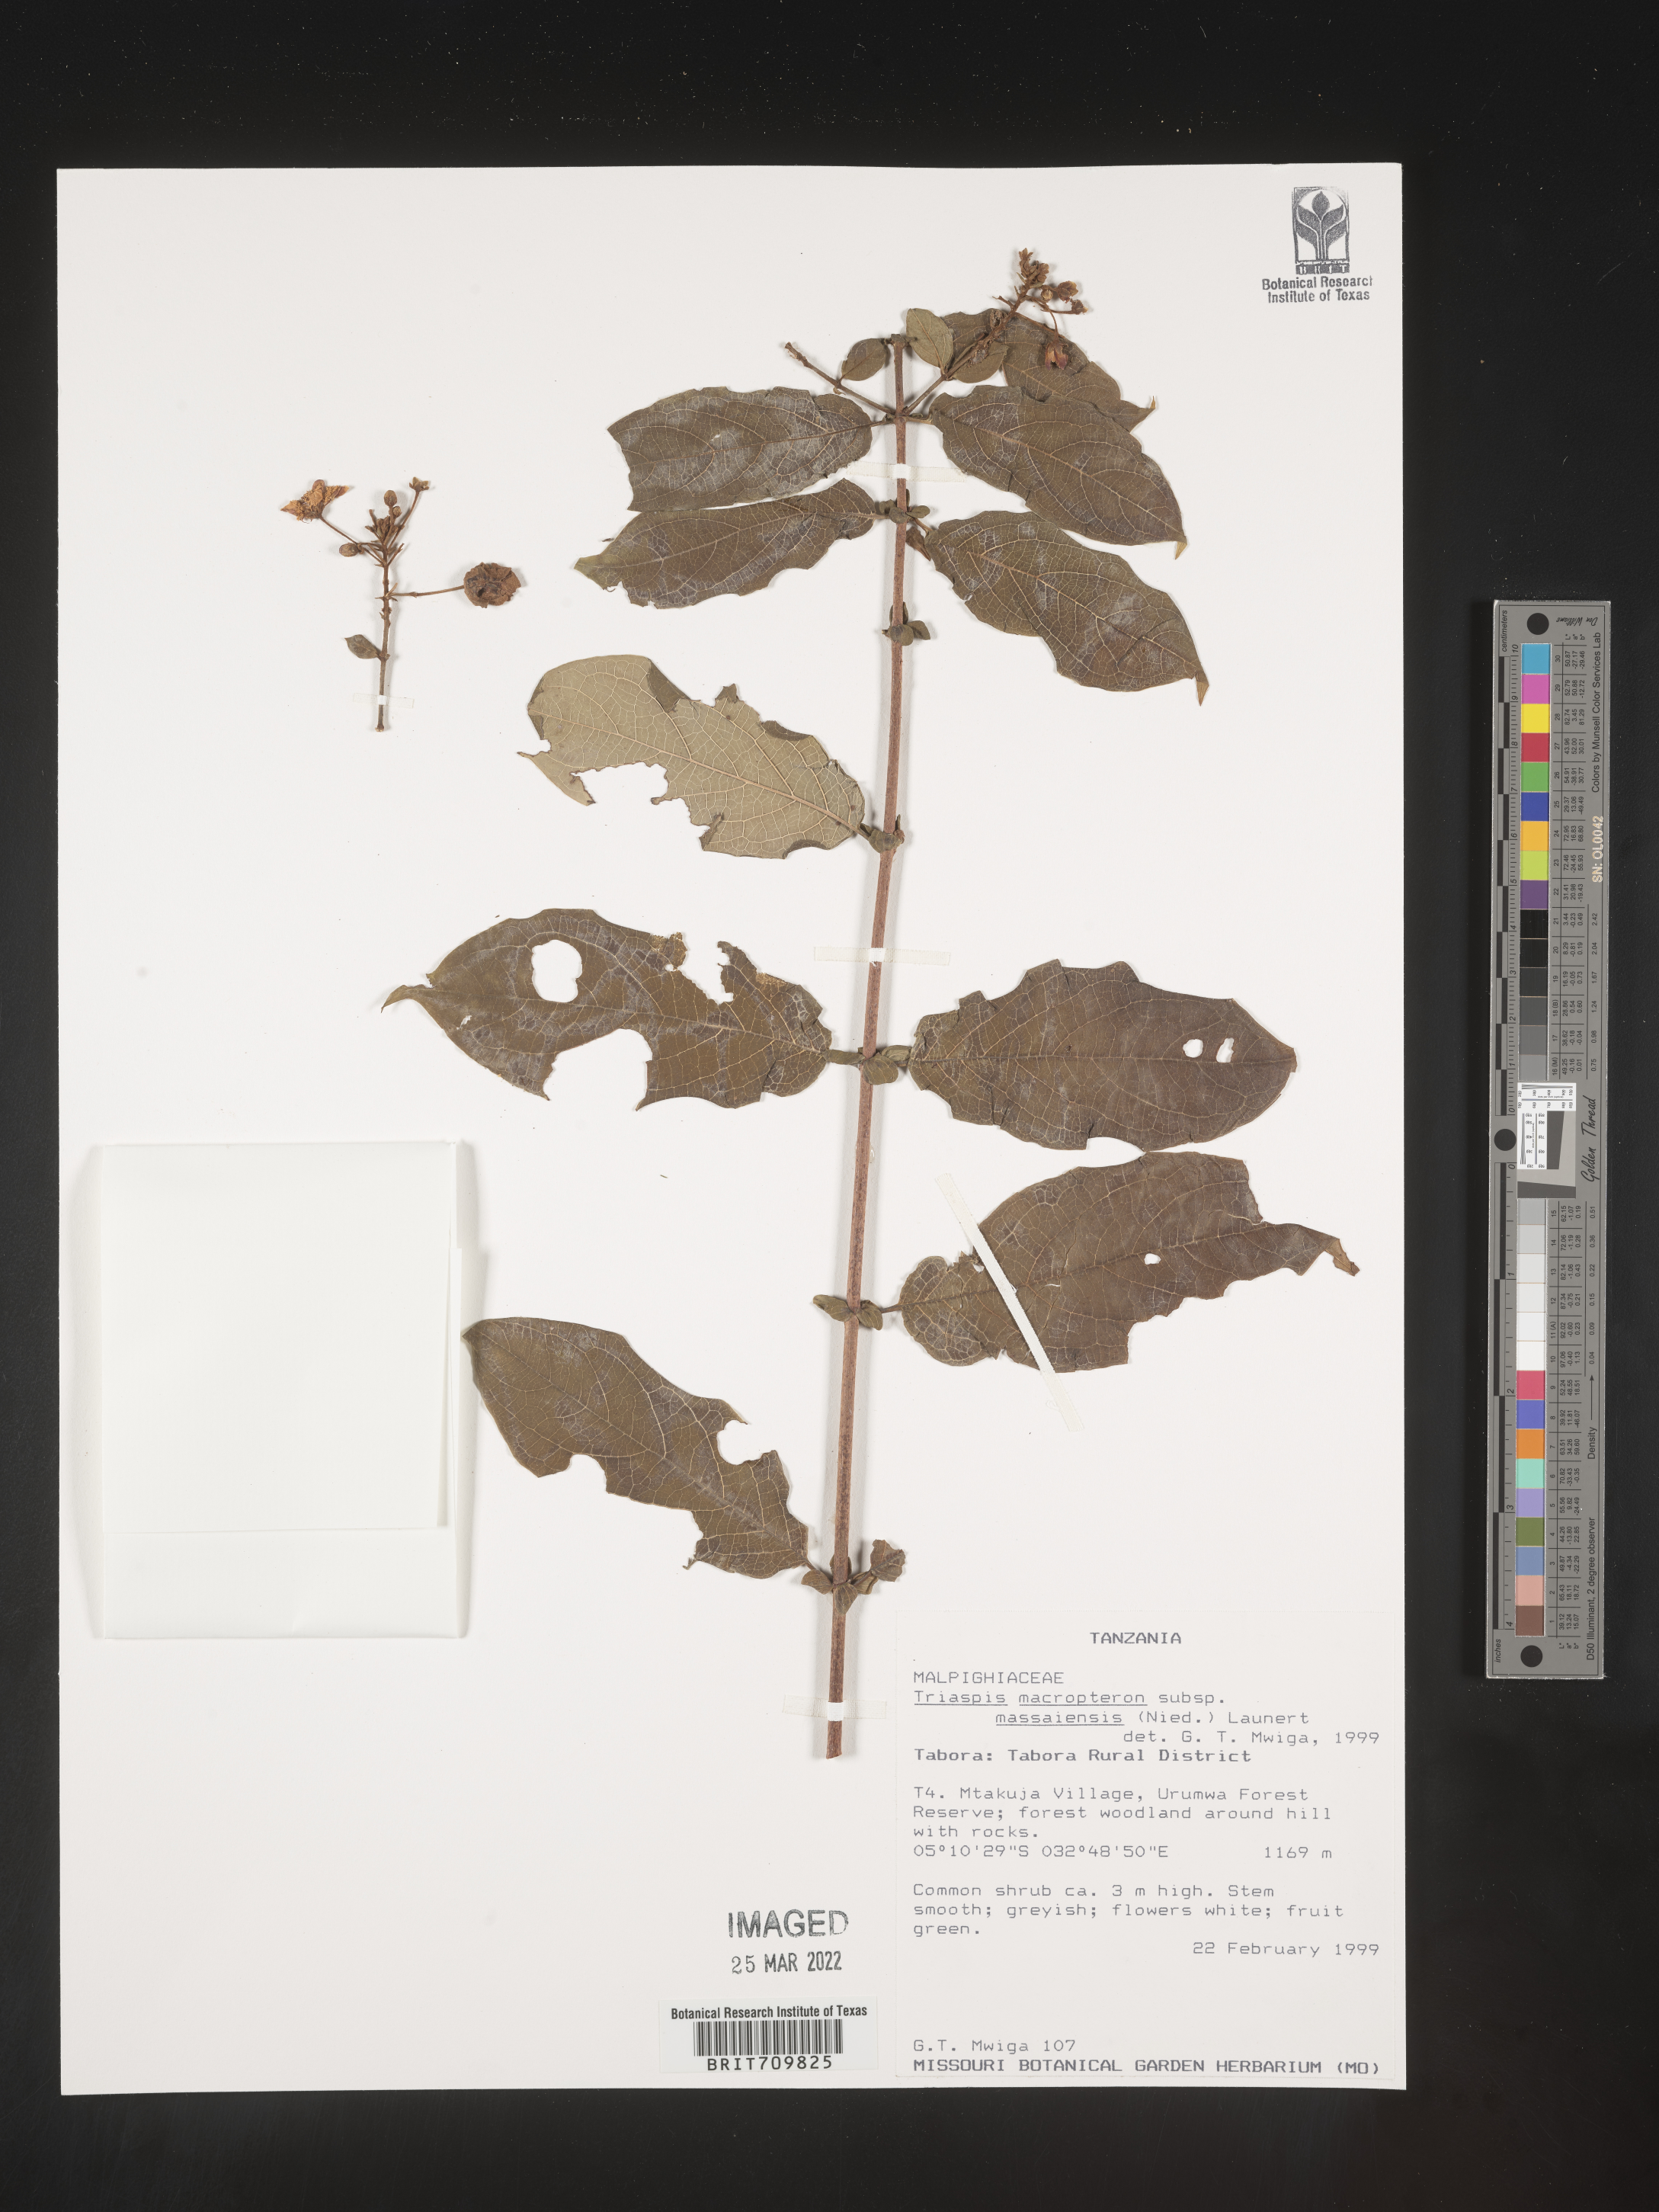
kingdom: Plantae
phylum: Tracheophyta
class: Magnoliopsida
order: Malpighiales
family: Malpighiaceae
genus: Triaspis
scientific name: Triaspis
